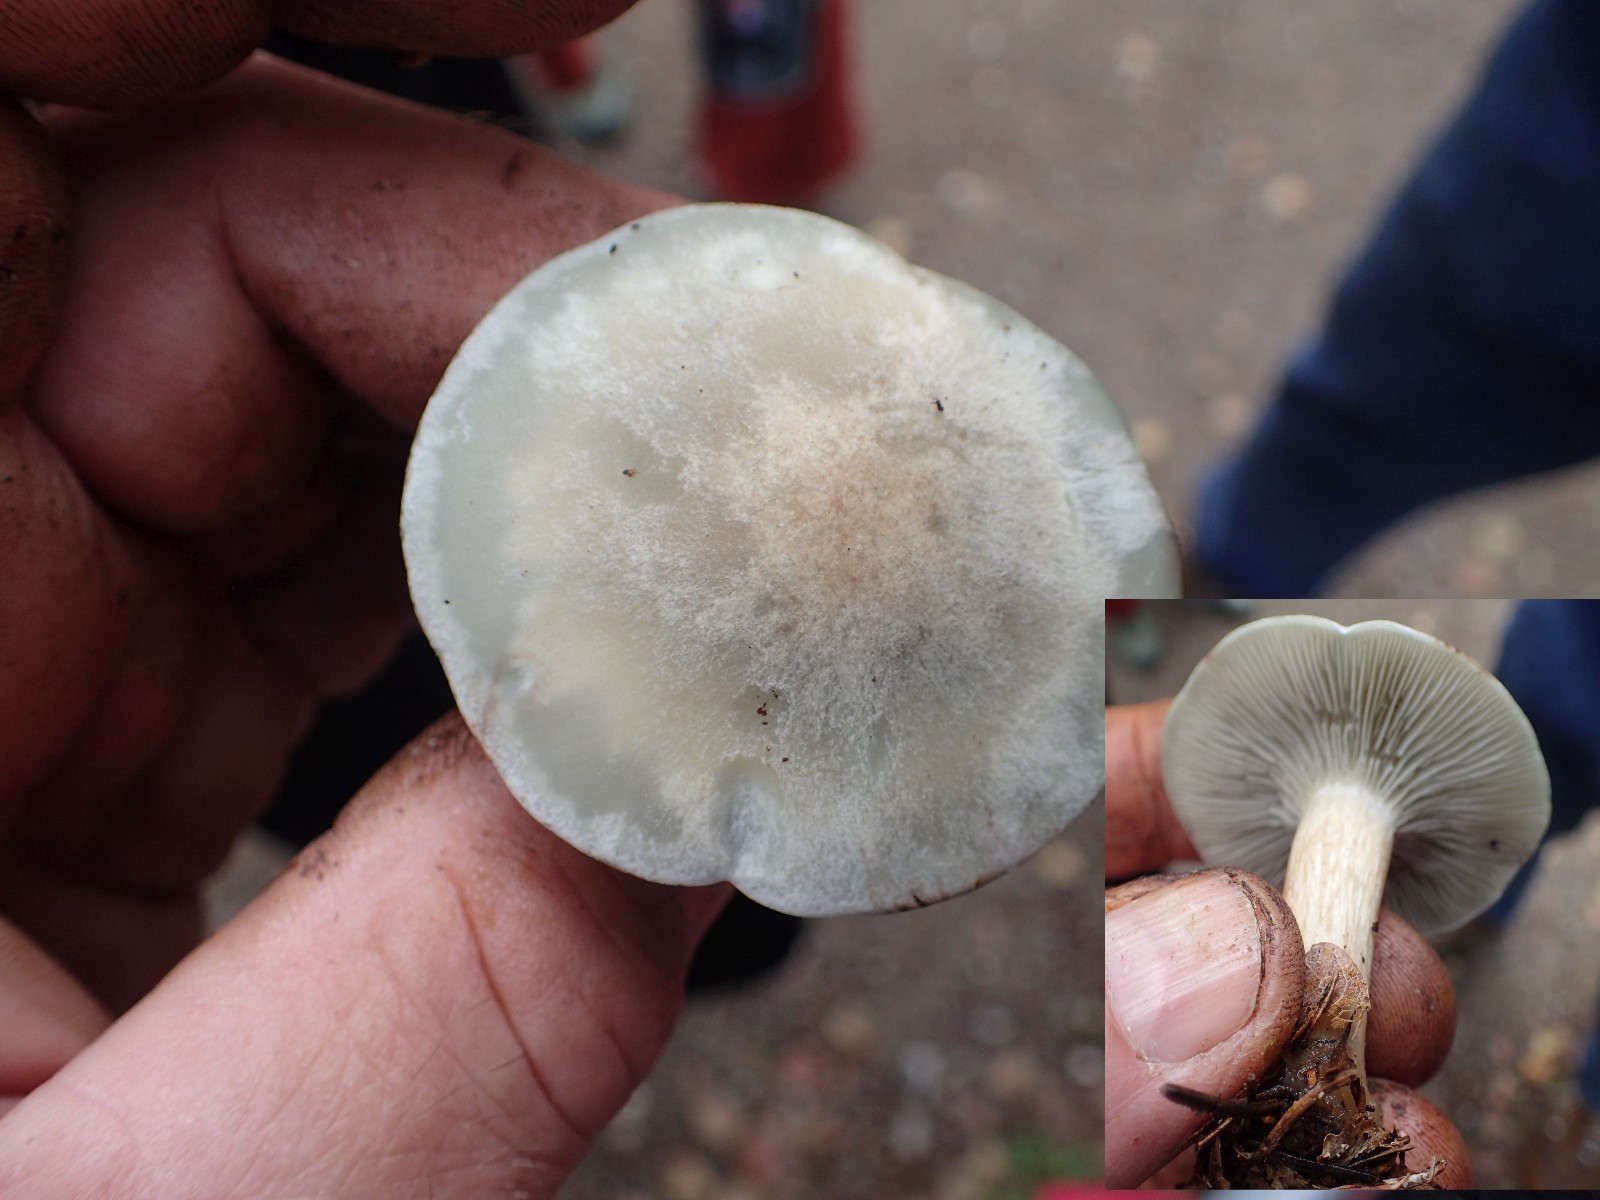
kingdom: Fungi
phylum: Basidiomycota
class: Agaricomycetes
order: Agaricales
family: Tricholomataceae
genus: Clitocybe
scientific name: Clitocybe odora
